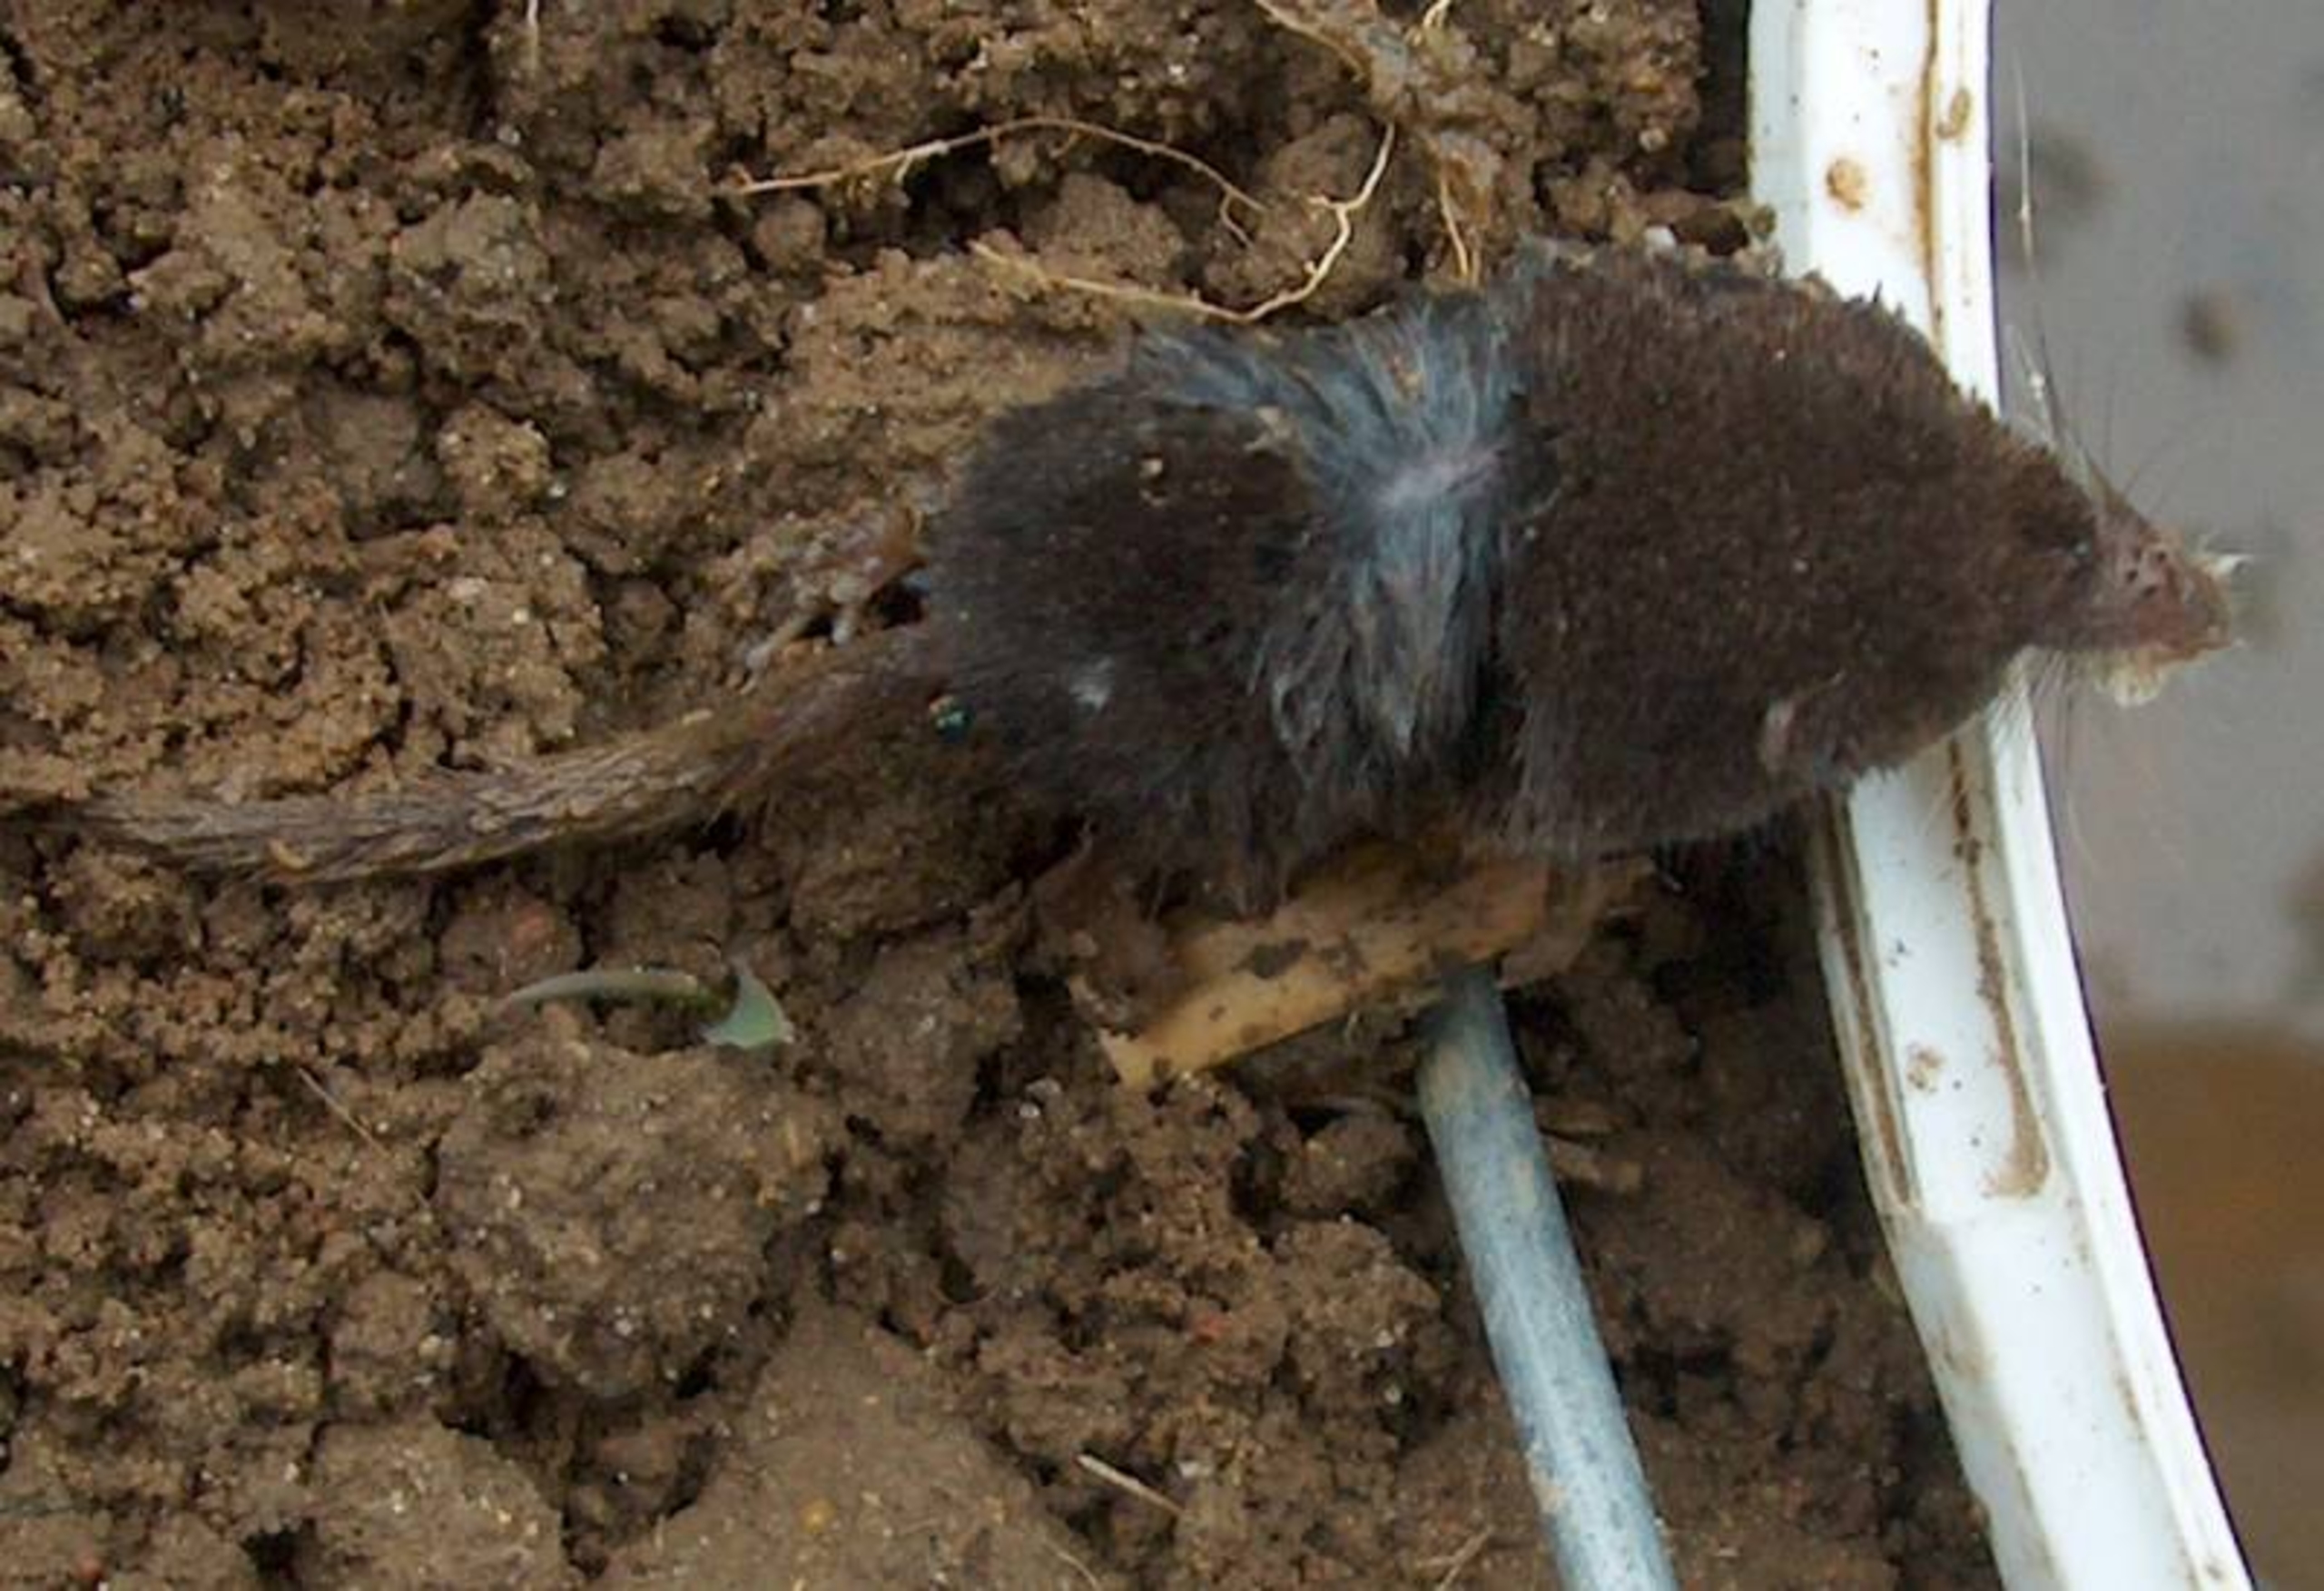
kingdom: Animalia
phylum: Chordata
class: Mammalia
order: Soricomorpha
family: Soricidae
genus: Sorex
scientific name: Sorex minutus
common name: Dværgspidsmus
